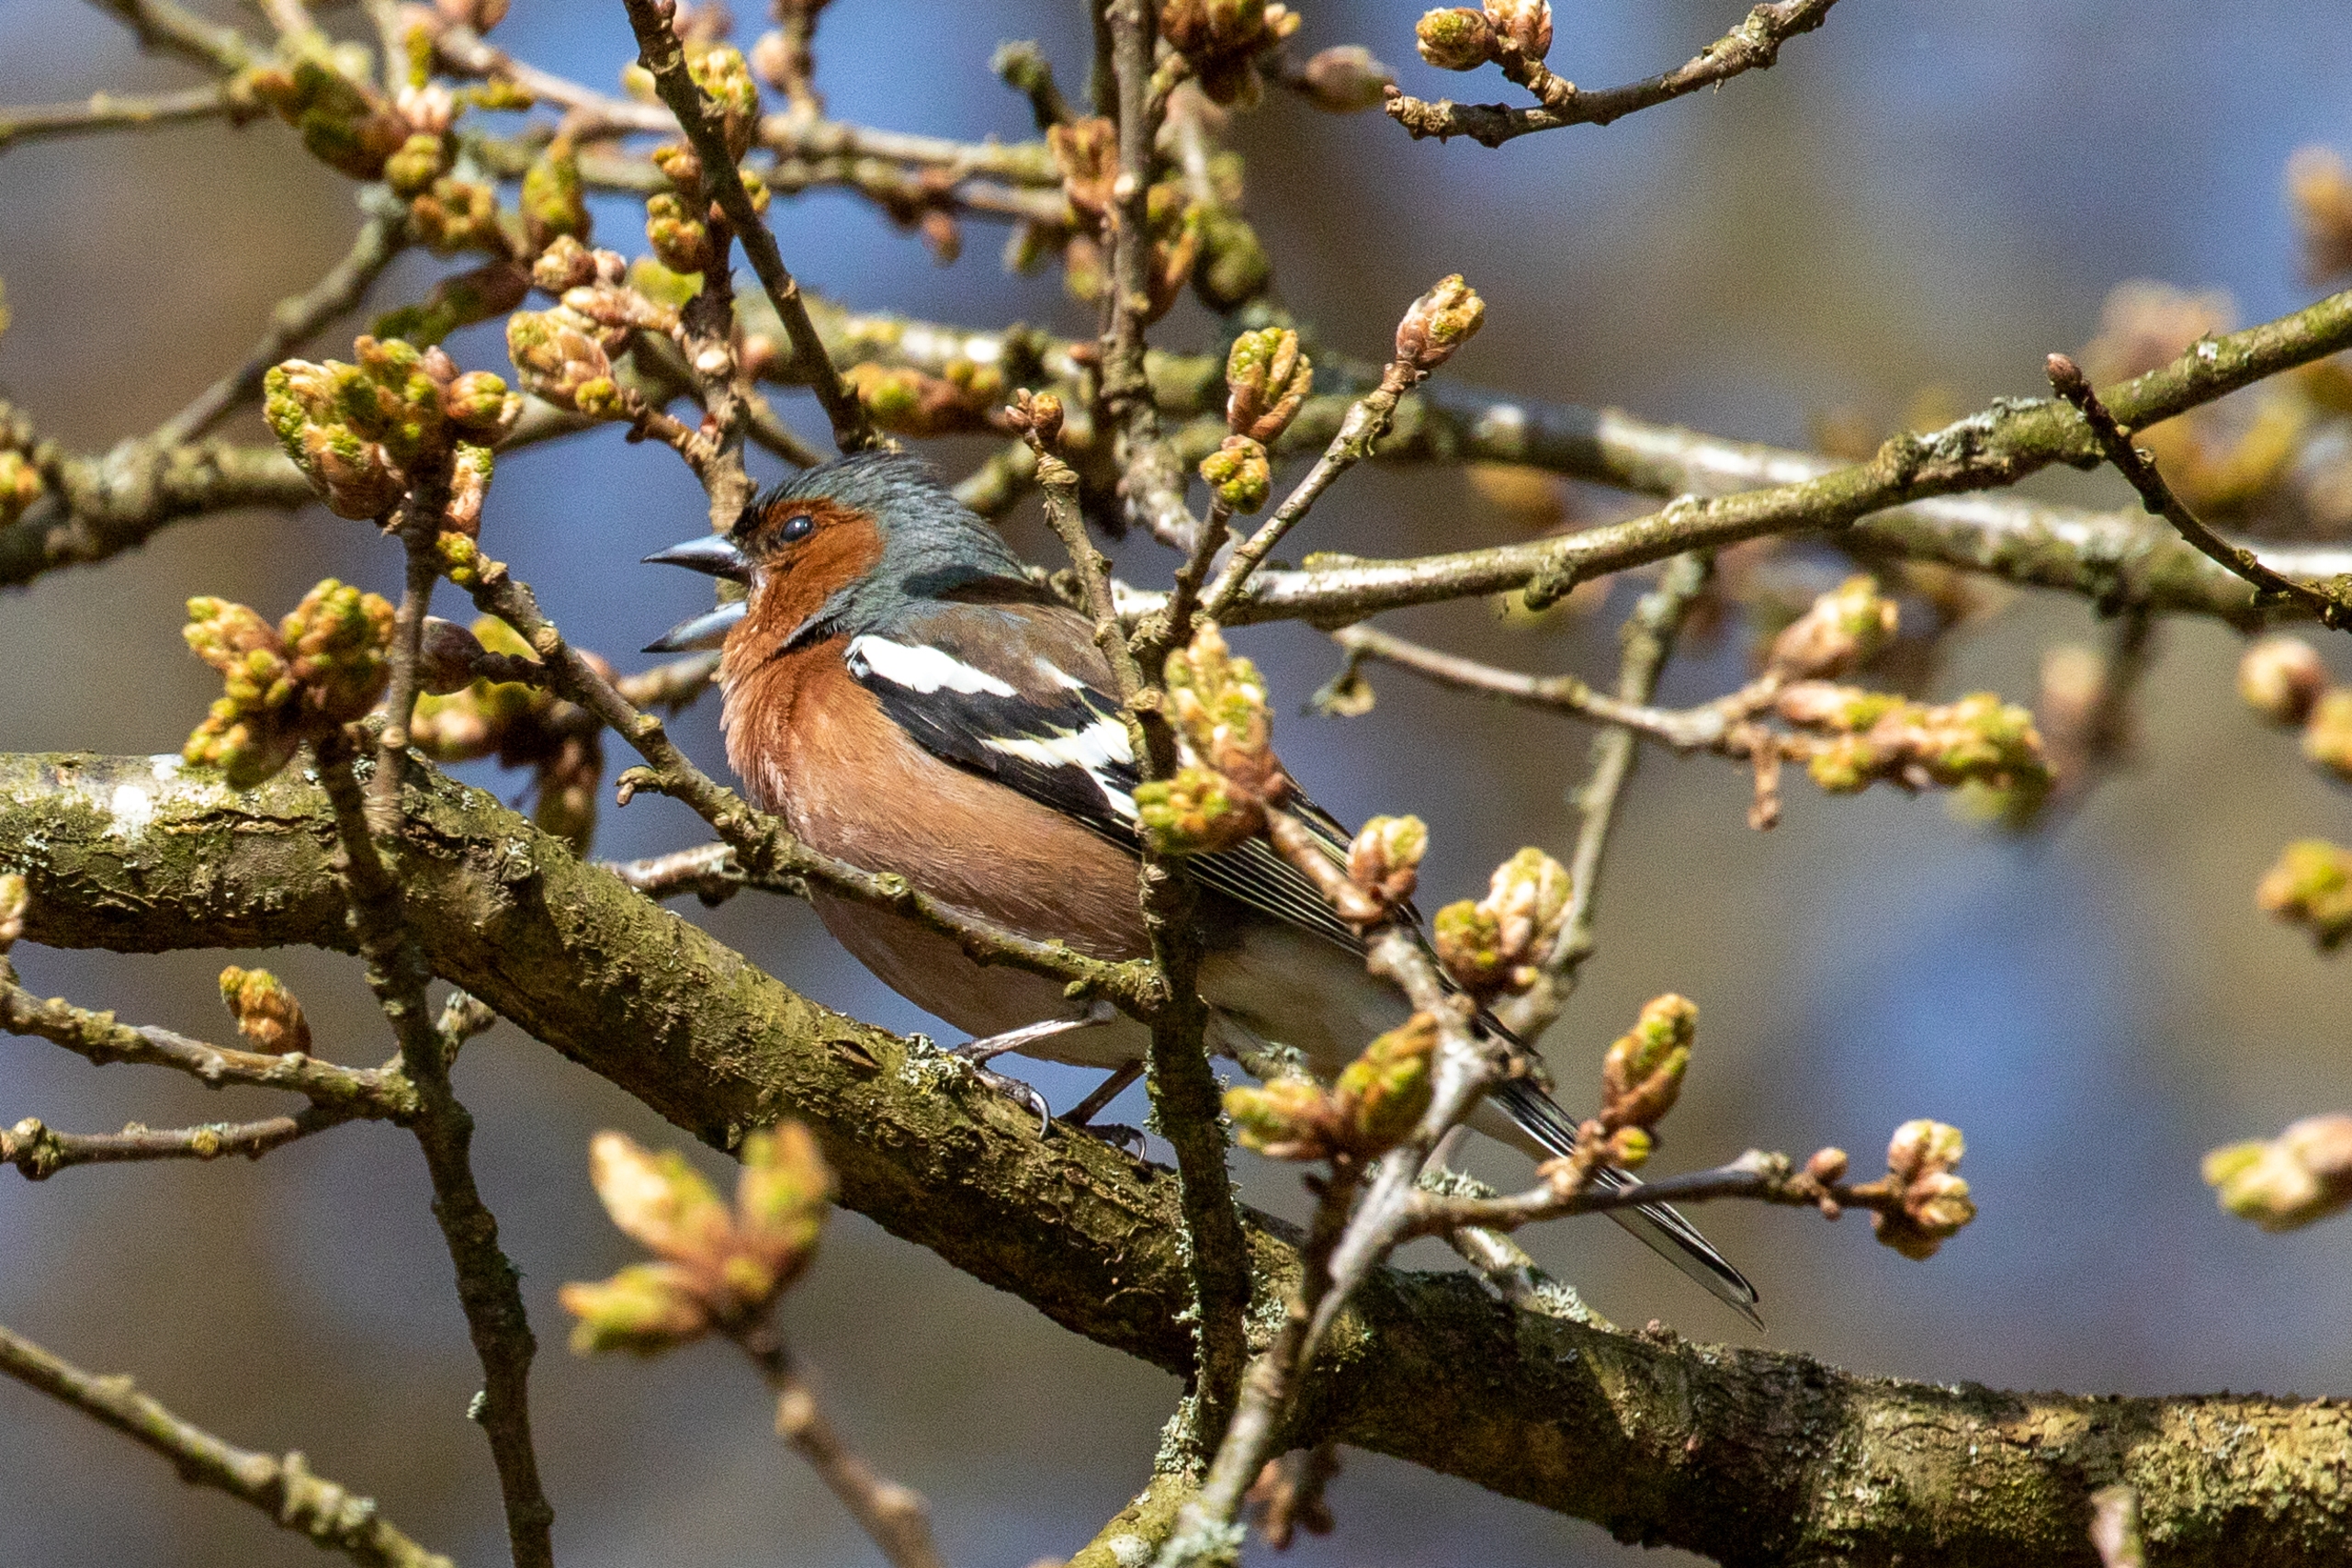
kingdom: Animalia
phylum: Chordata
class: Aves
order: Passeriformes
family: Fringillidae
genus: Fringilla
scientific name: Fringilla coelebs
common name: Bogfinke
